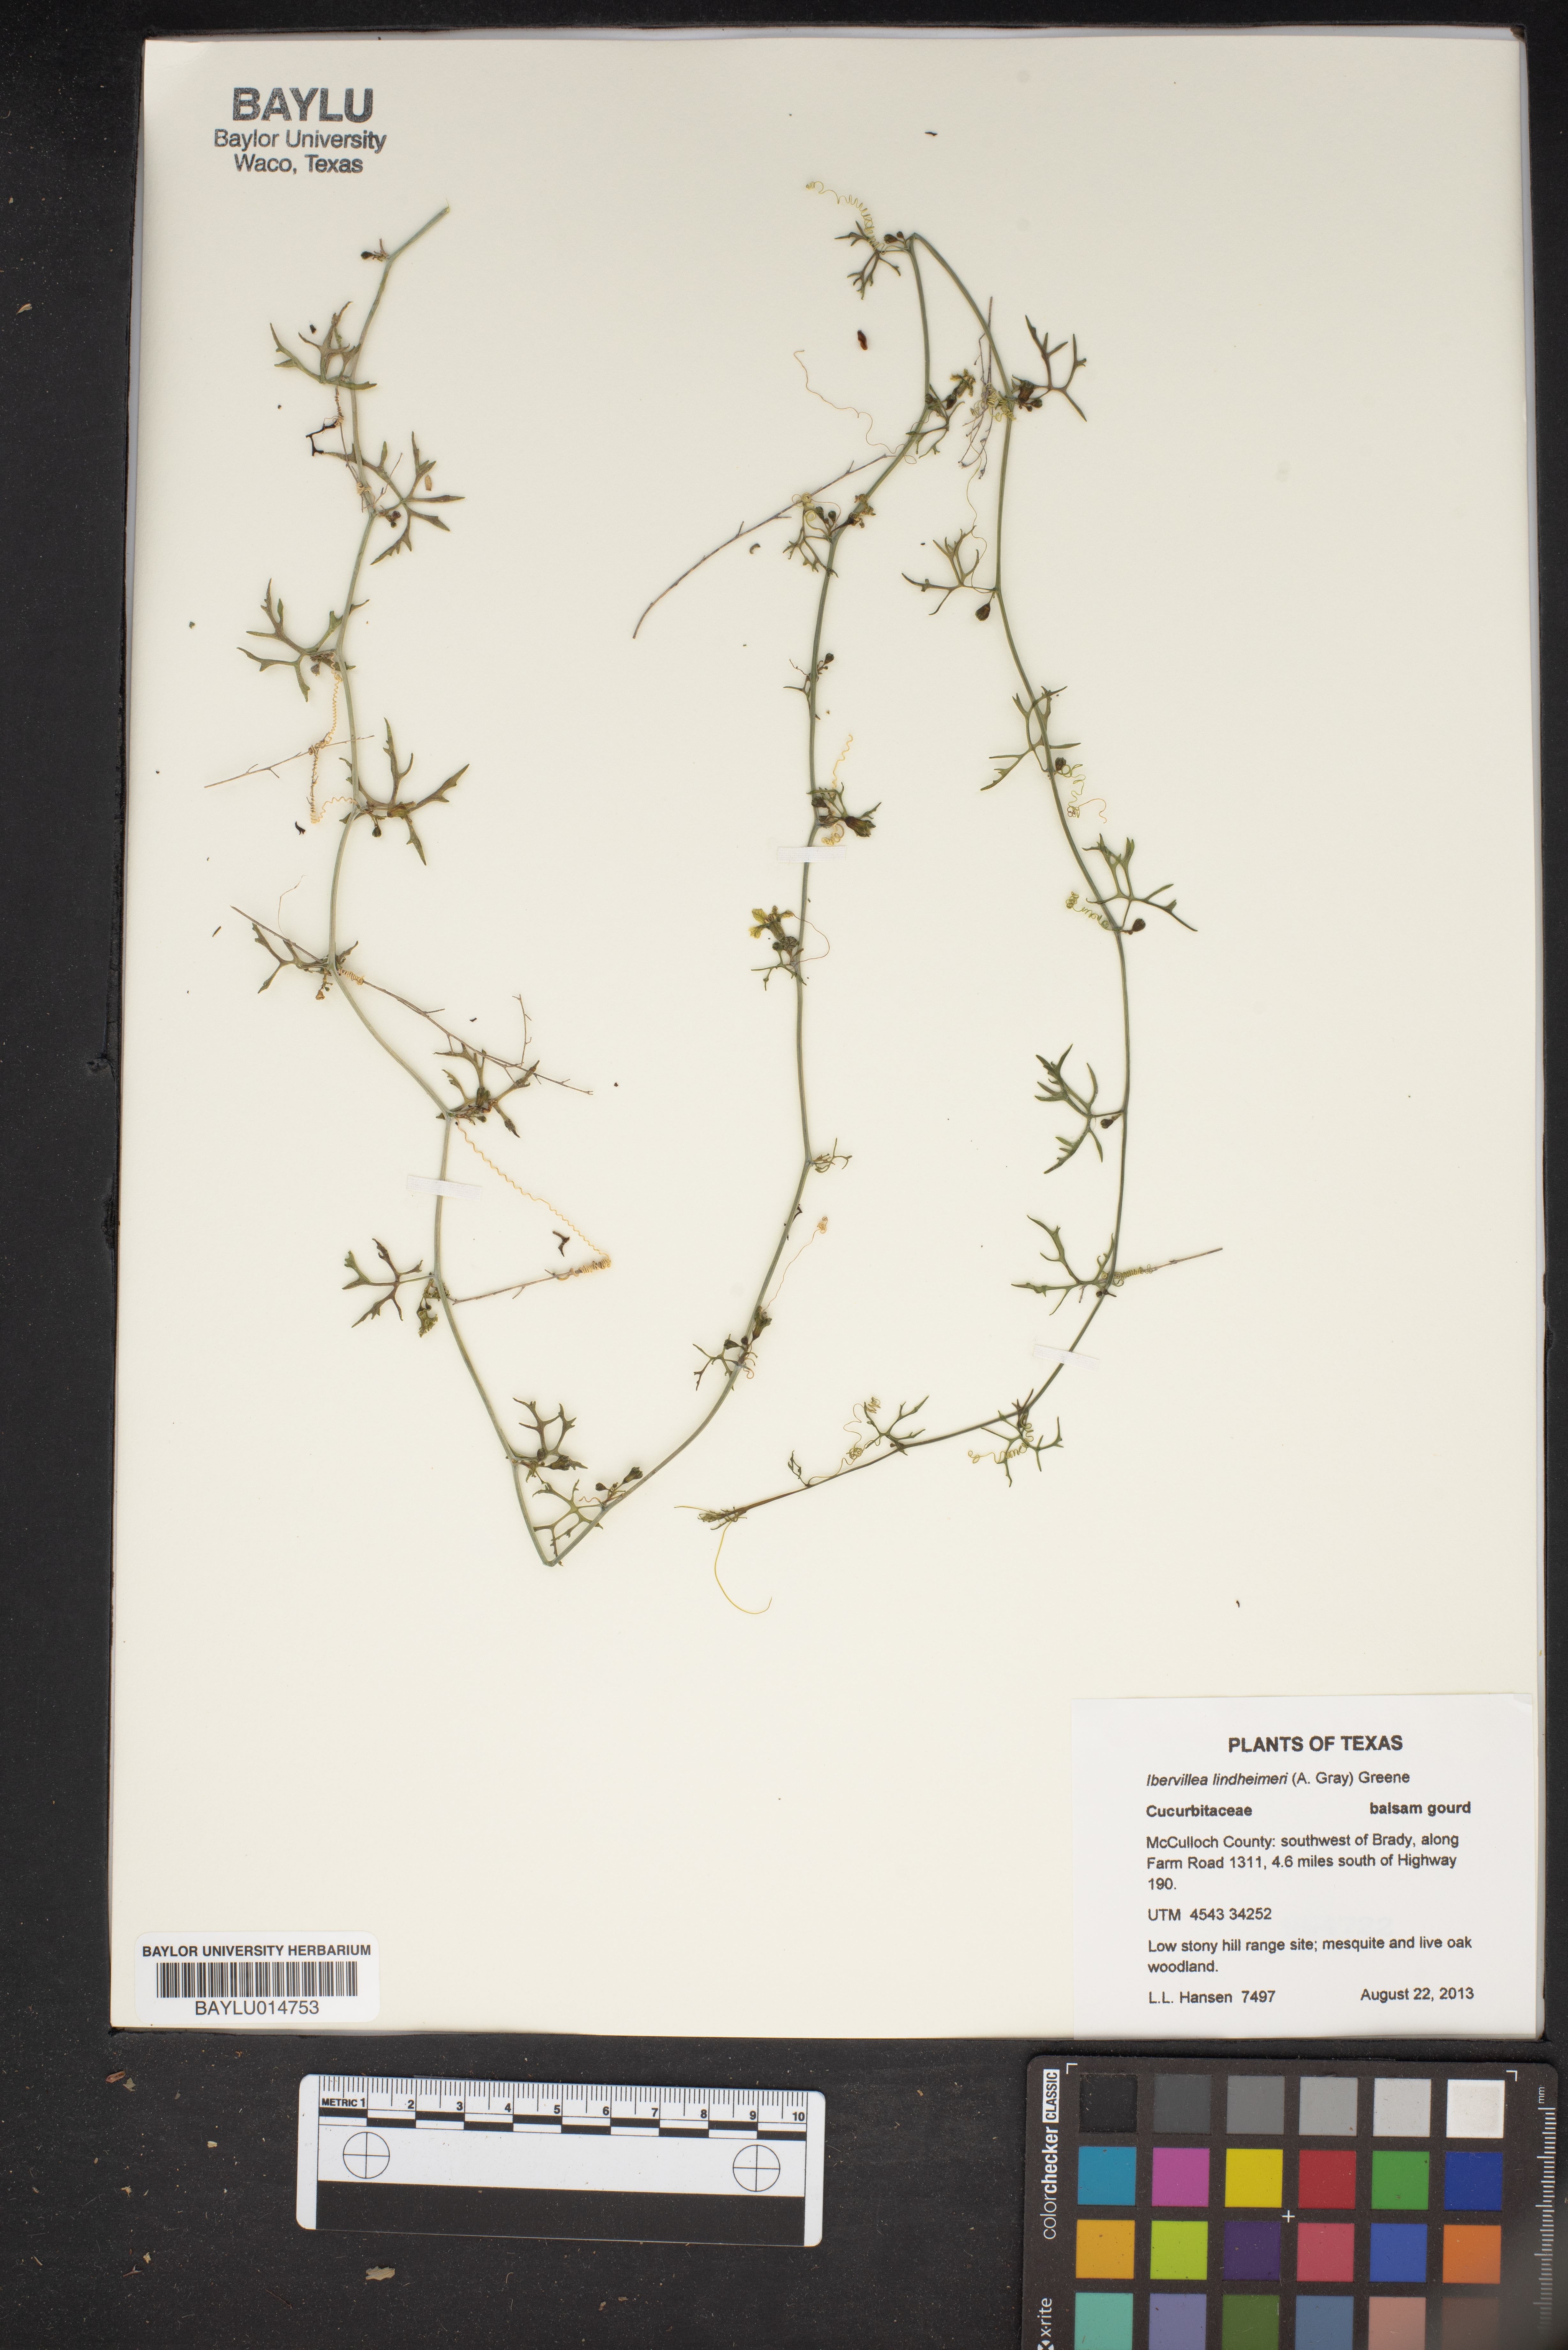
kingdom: Plantae
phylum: Tracheophyta
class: Magnoliopsida
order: Cucurbitales
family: Cucurbitaceae
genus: Ibervillea
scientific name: Ibervillea lindheimeri
